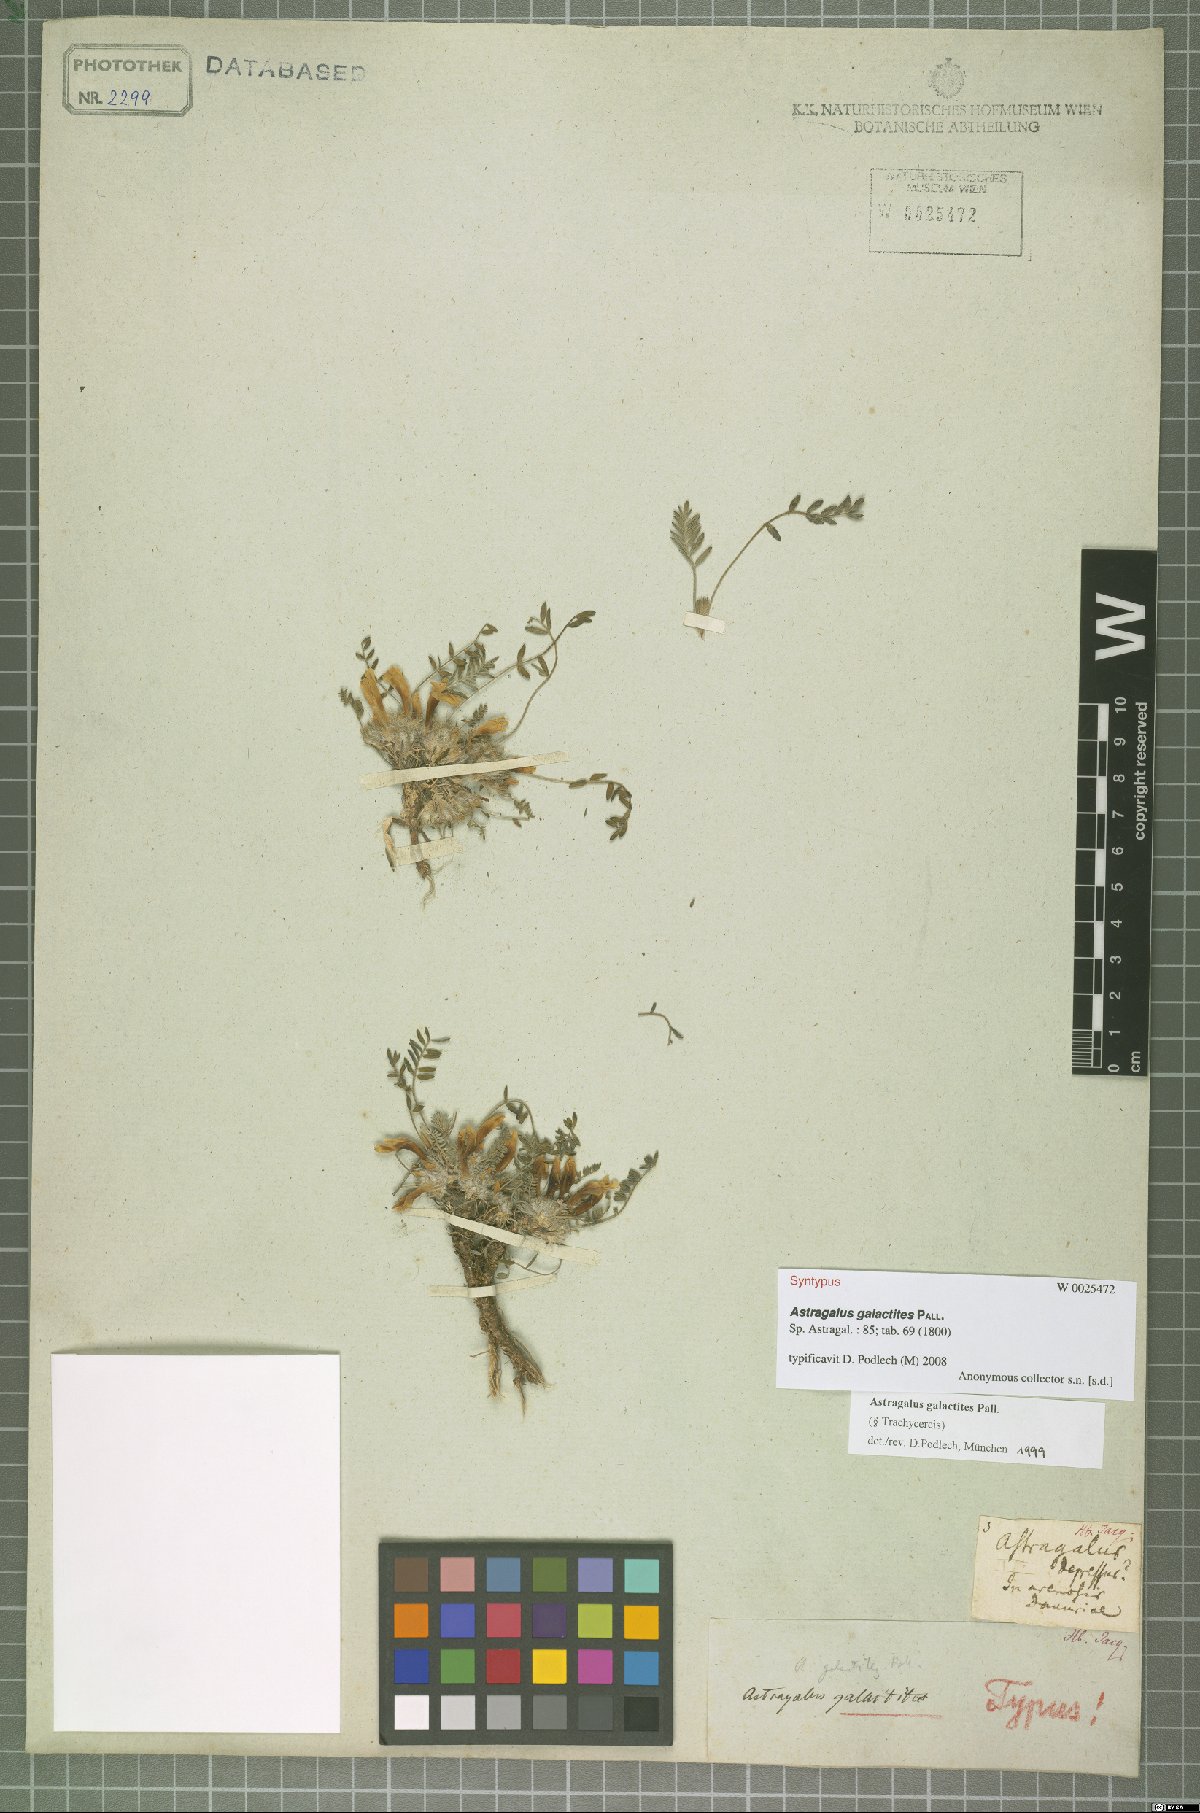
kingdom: Plantae
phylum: Tracheophyta
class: Magnoliopsida
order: Fabales
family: Fabaceae
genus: Astragalus
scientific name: Astragalus galactites
